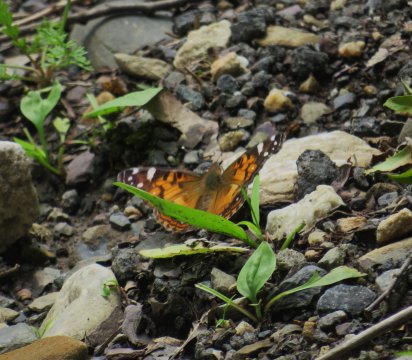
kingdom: Animalia
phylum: Arthropoda
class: Insecta
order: Lepidoptera
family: Nymphalidae
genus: Vanessa
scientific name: Vanessa virginiensis
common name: American Lady
